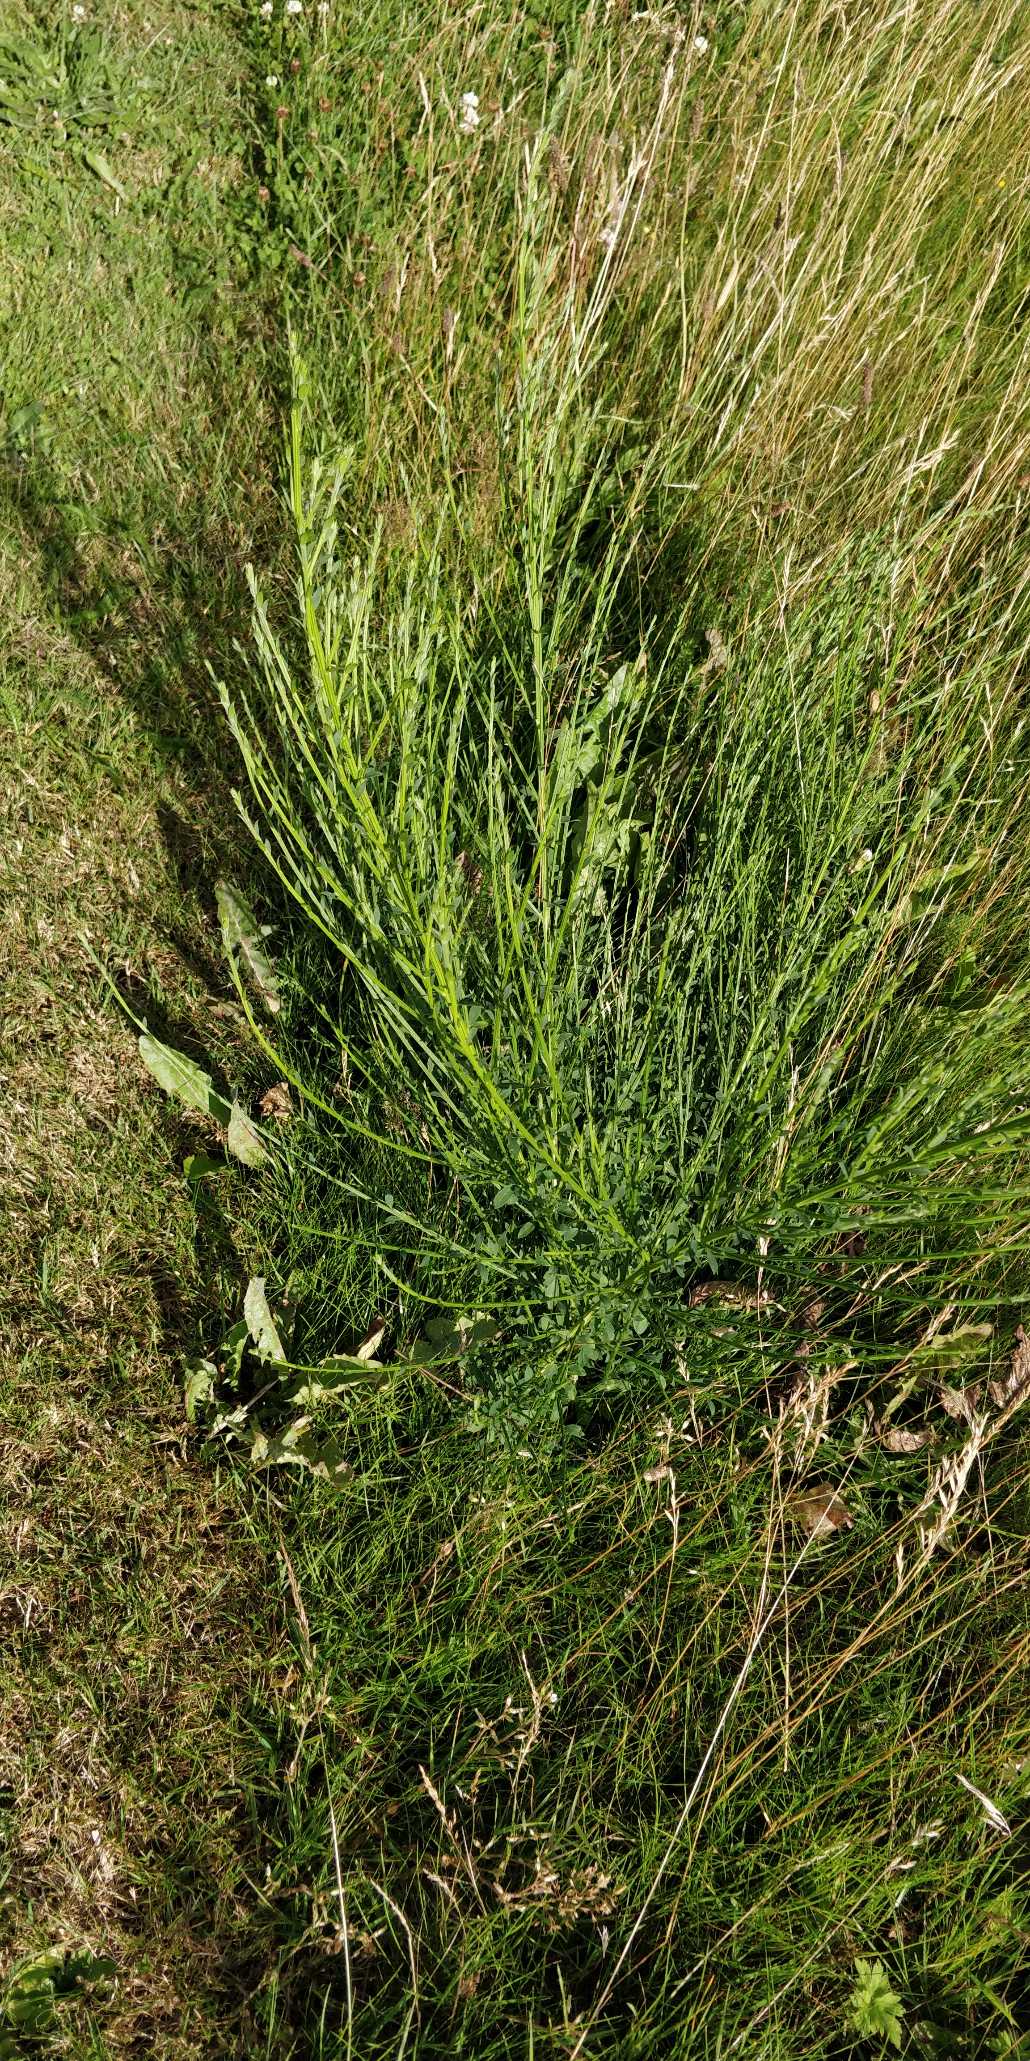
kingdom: Plantae
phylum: Tracheophyta
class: Magnoliopsida
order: Fabales
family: Fabaceae
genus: Cytisus
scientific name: Cytisus scoparius
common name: Almindelig gyvel
